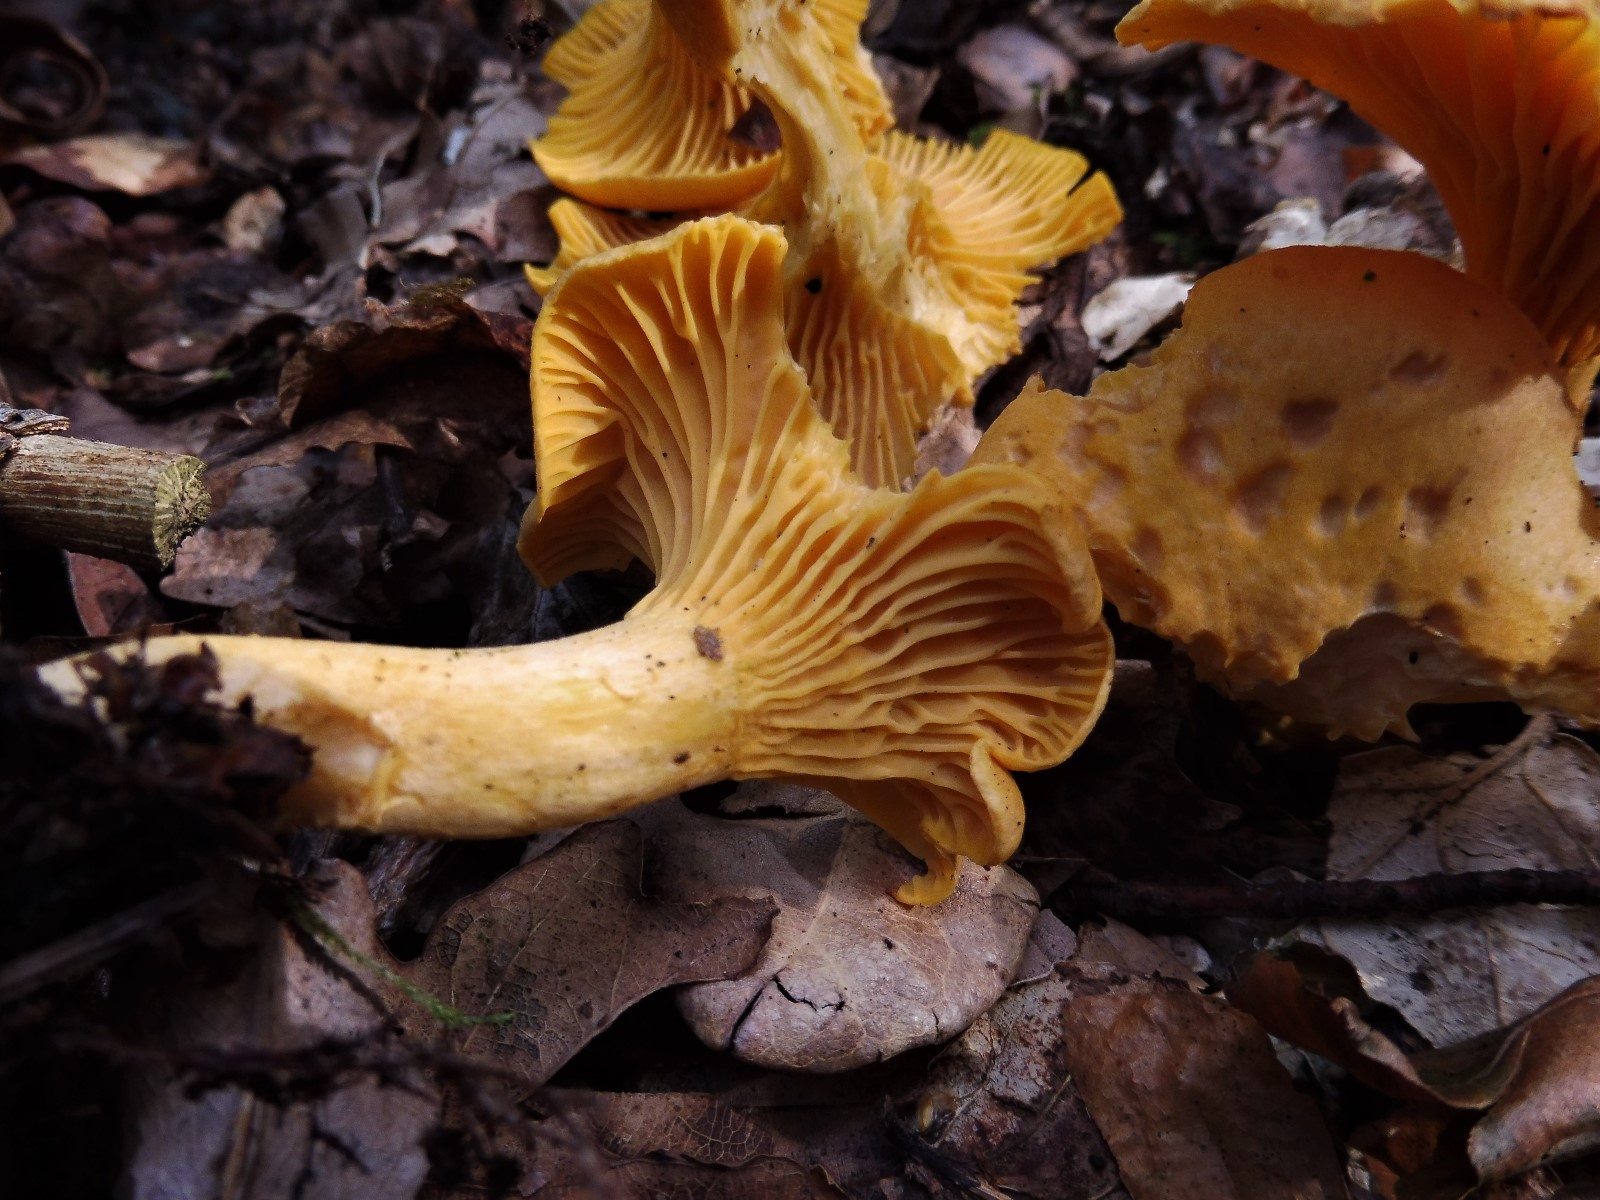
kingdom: Fungi
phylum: Basidiomycota
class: Agaricomycetes
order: Cantharellales
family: Hydnaceae
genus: Cantharellus
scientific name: Cantharellus cibarius
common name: almindelig kantarel
